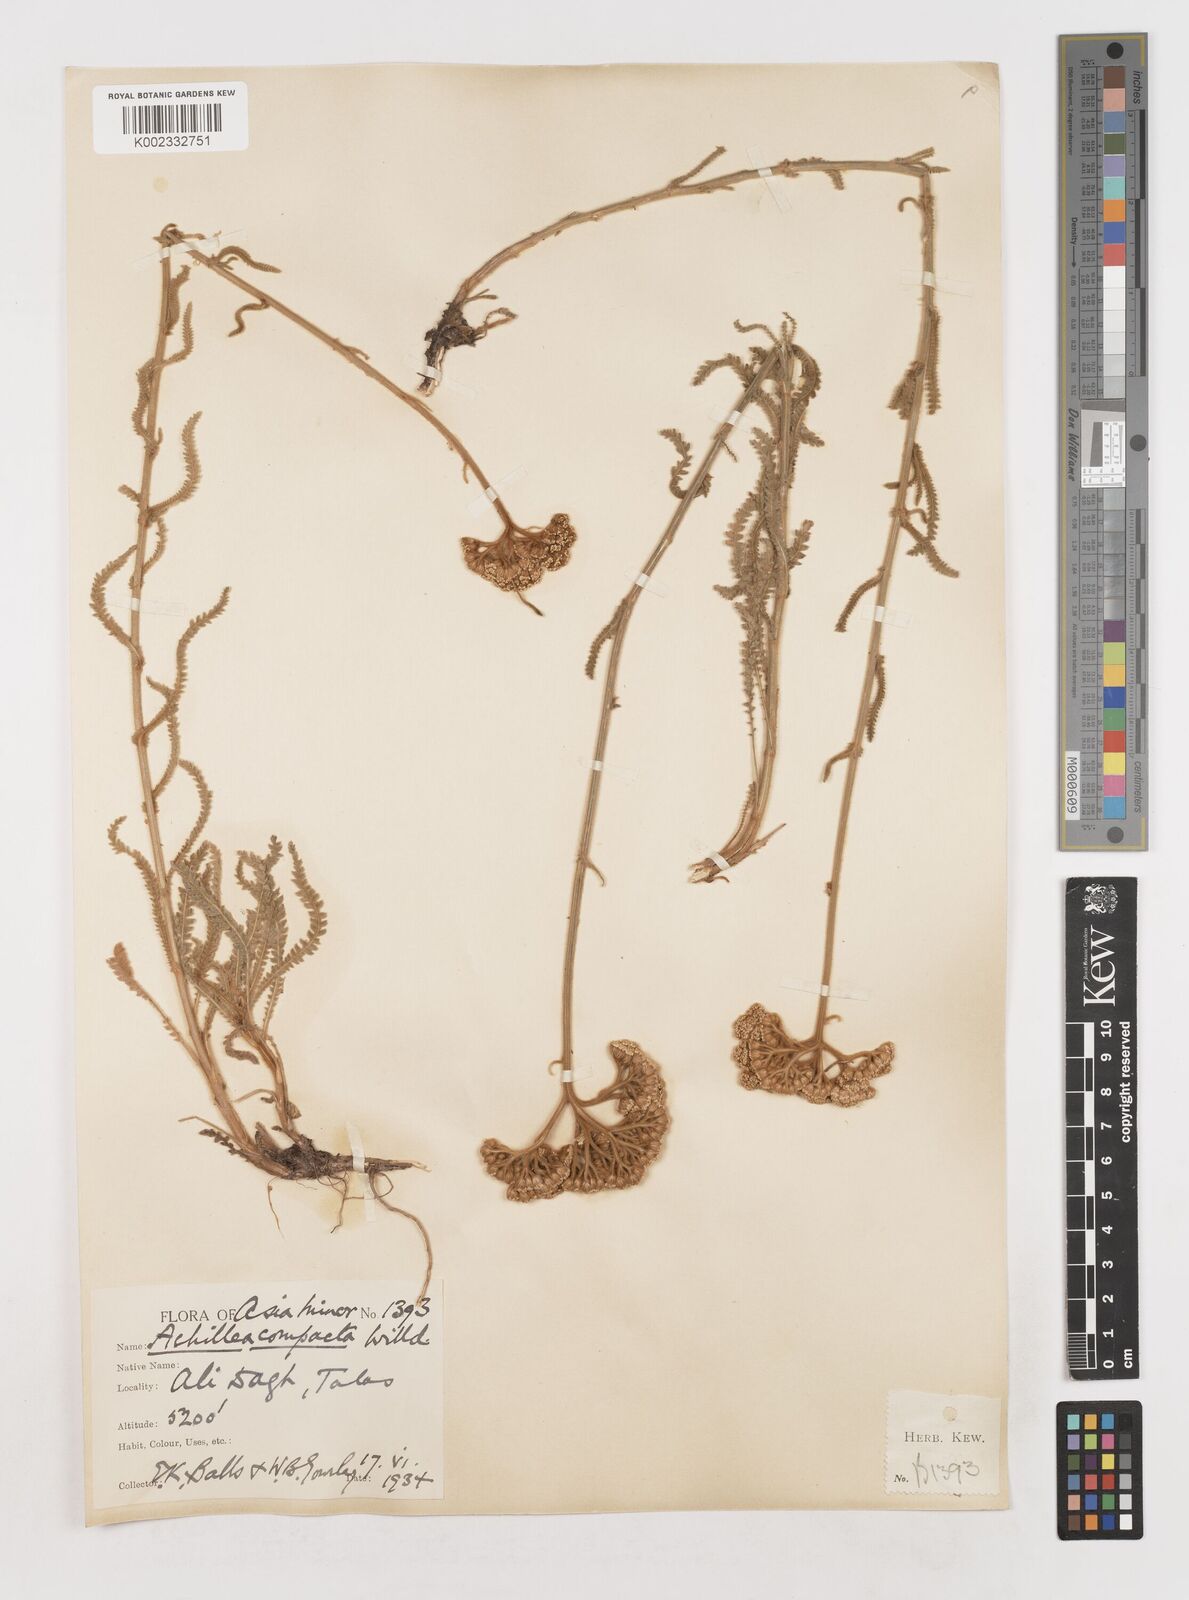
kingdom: Plantae
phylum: Tracheophyta
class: Magnoliopsida
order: Asterales
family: Asteraceae
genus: Achillea
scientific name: Achillea coarctata
